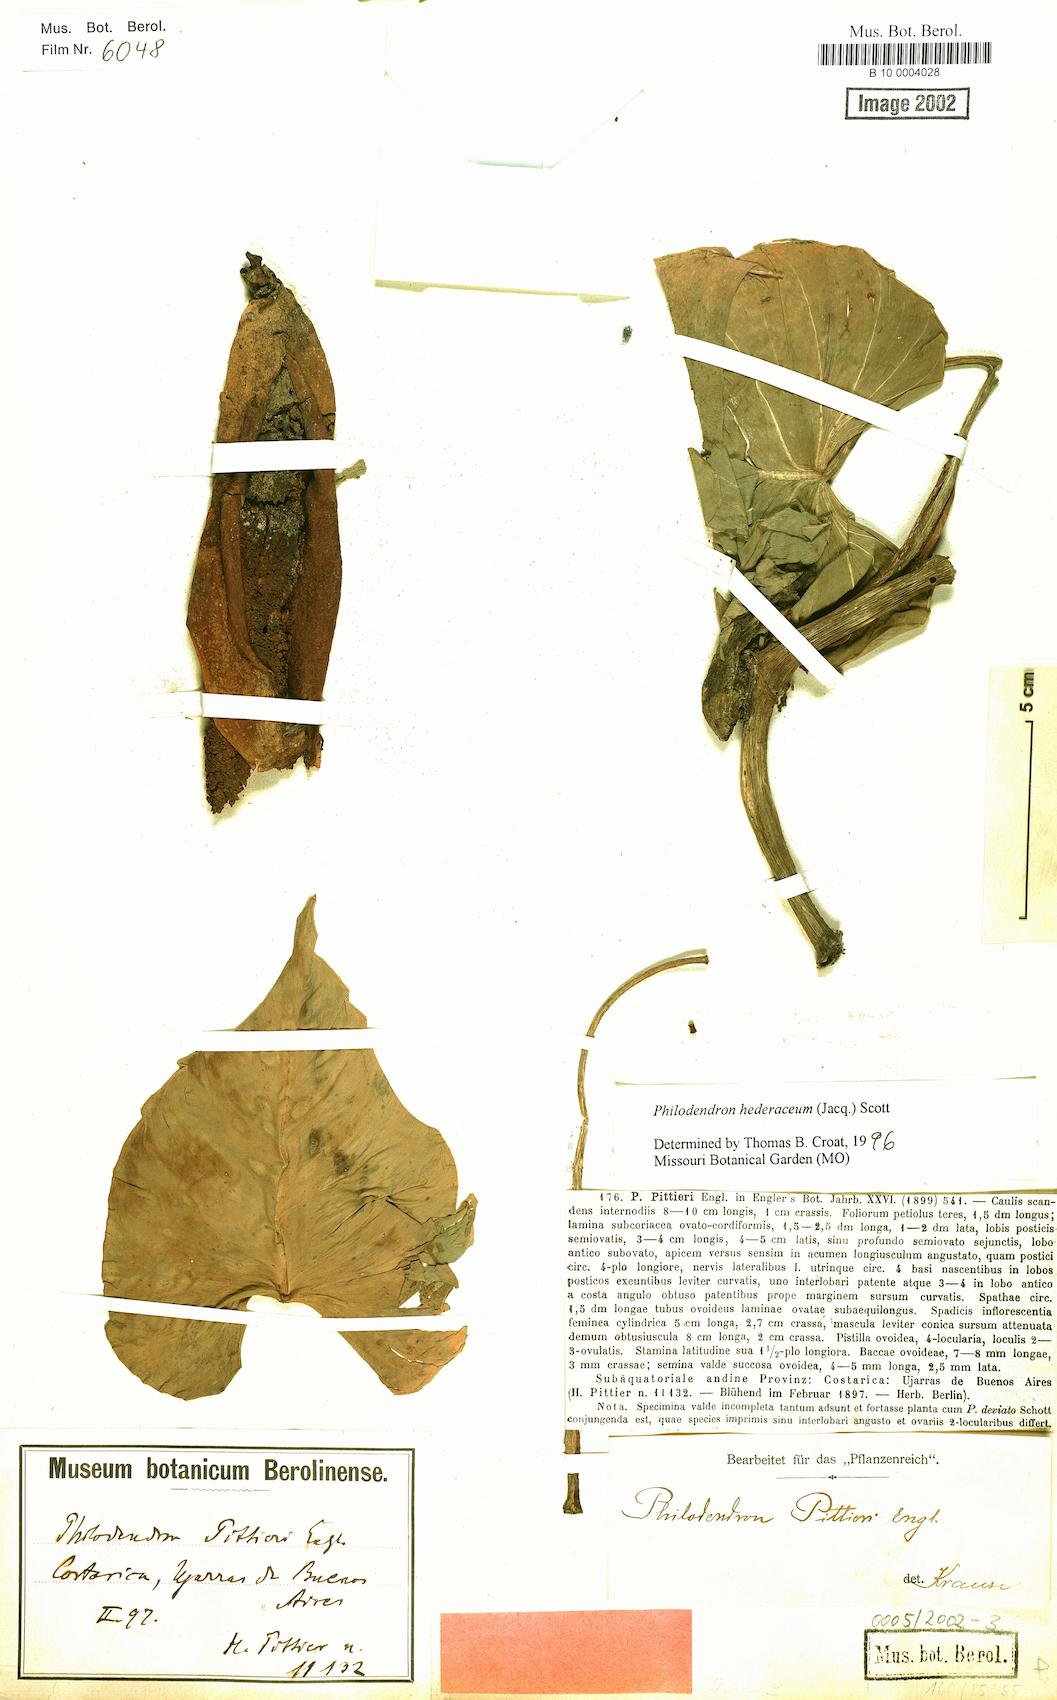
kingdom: Plantae
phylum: Tracheophyta
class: Liliopsida
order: Alismatales
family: Araceae
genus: Philodendron
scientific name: Philodendron hederaceum
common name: Vilevine
